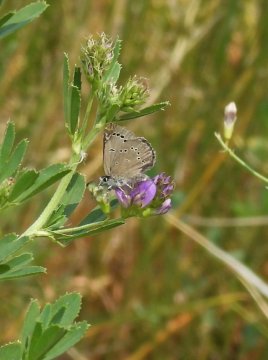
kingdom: Animalia
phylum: Arthropoda
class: Insecta
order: Lepidoptera
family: Lycaenidae
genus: Glaucopsyche
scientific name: Glaucopsyche lygdamus
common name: Silvery Blue
